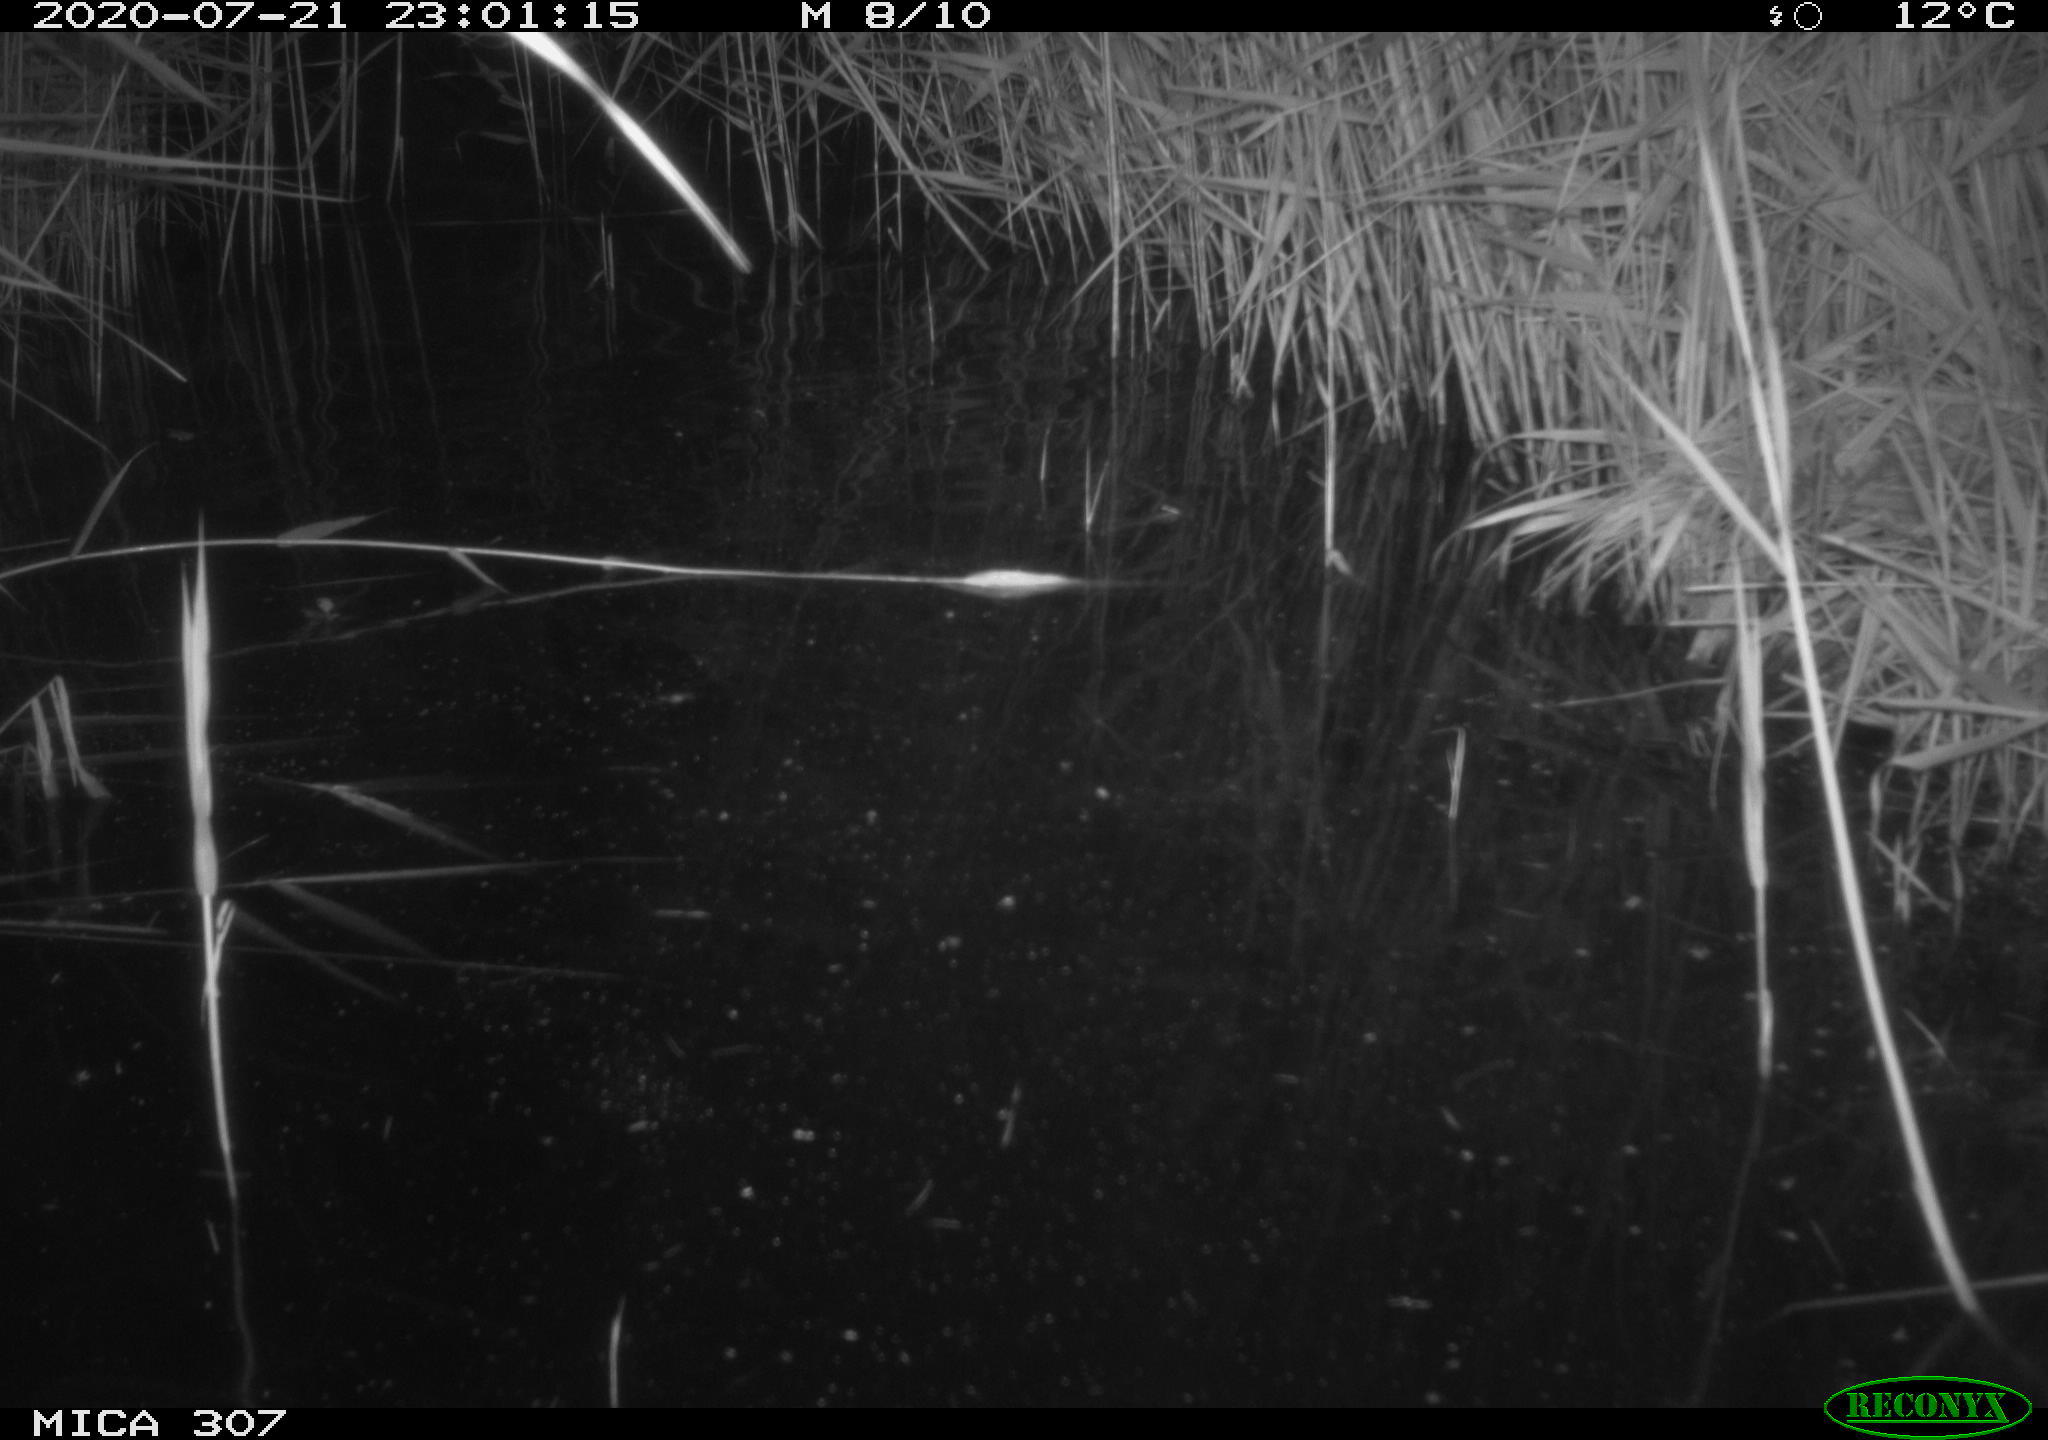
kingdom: Animalia
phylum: Chordata
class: Mammalia
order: Rodentia
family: Muridae
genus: Rattus
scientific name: Rattus norvegicus
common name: Brown rat
